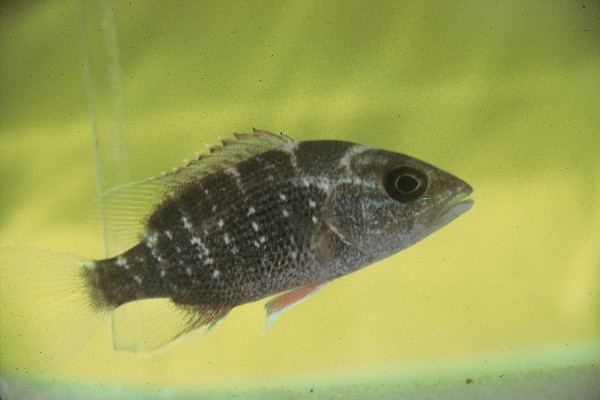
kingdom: Animalia
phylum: Chordata
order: Perciformes
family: Lutjanidae
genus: Lutjanus
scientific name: Lutjanus argentimaculatus
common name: Mangrove red snapper
